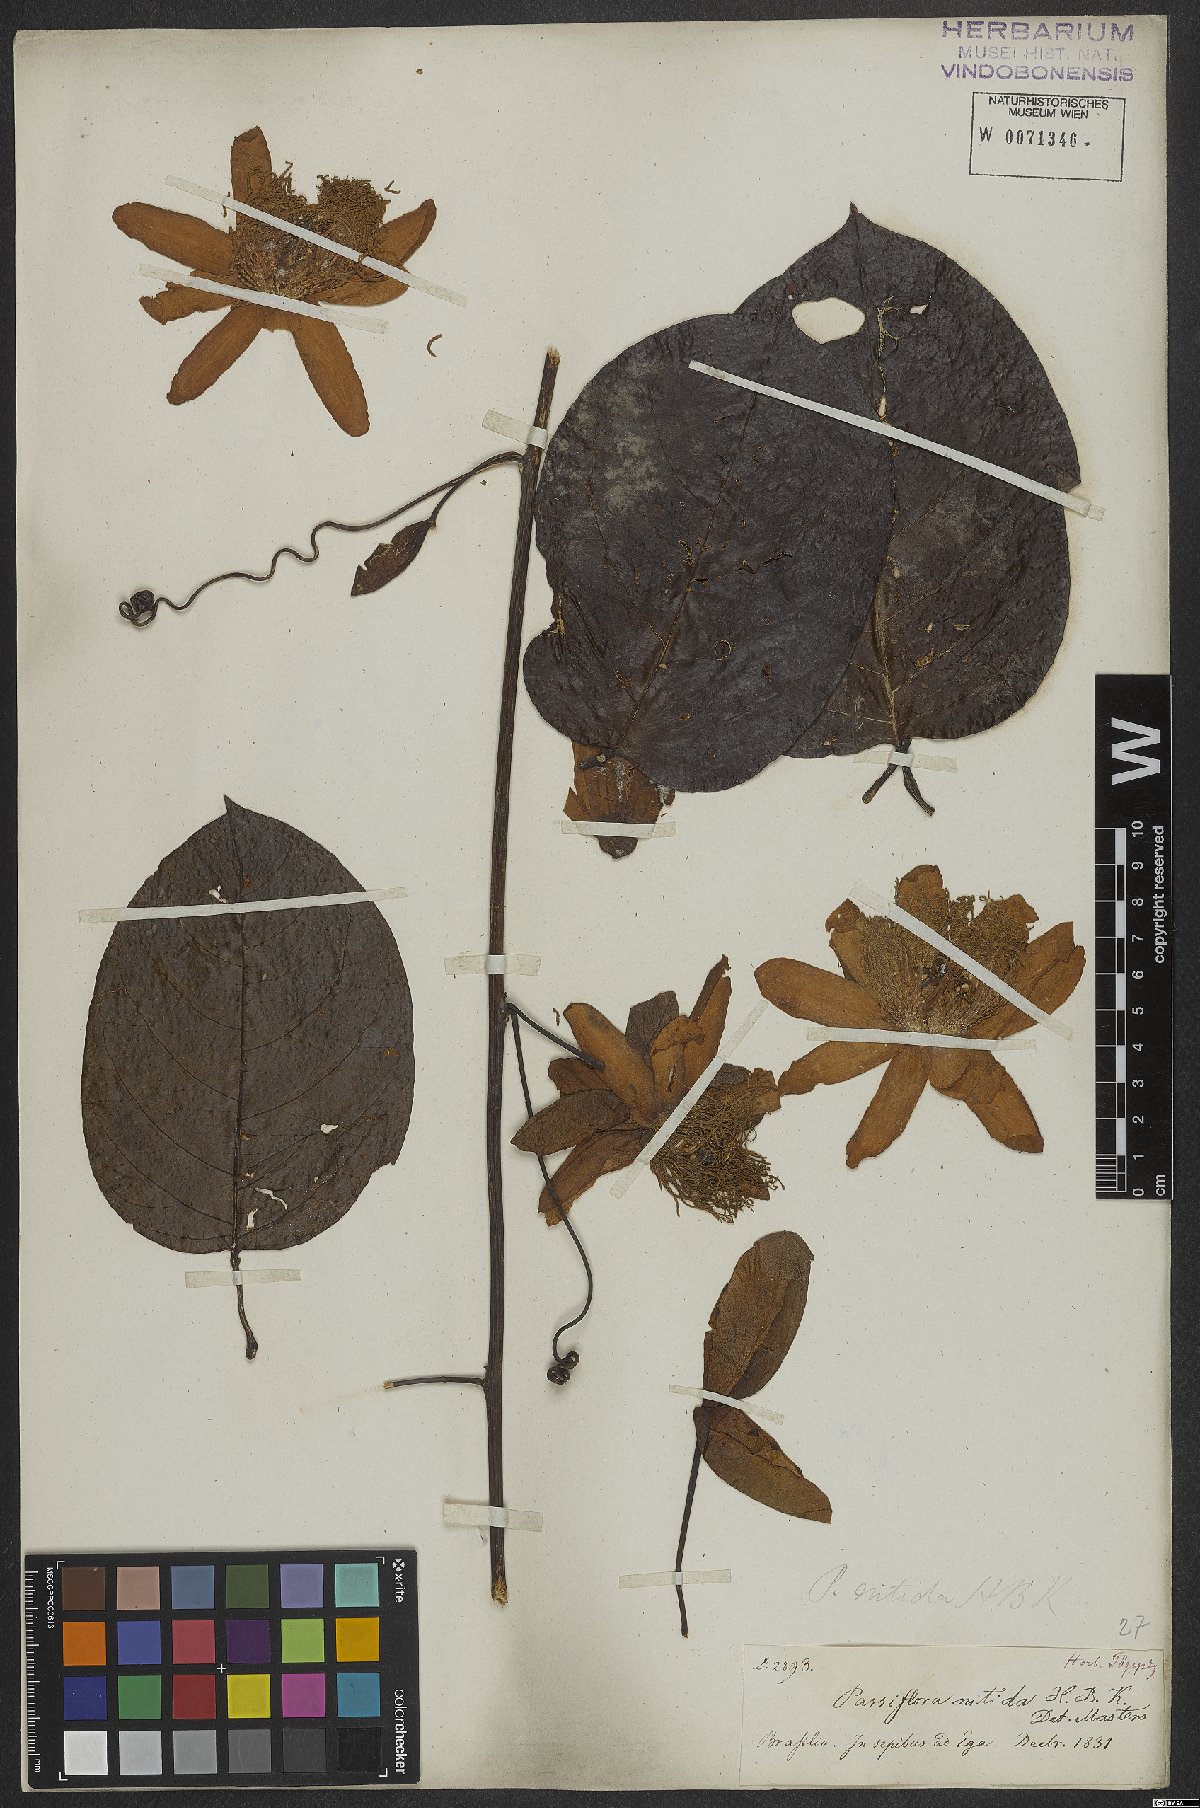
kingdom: Plantae
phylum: Tracheophyta
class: Magnoliopsida
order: Malpighiales
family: Passifloraceae
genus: Passiflora
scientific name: Passiflora nitida
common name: Bell-apple
